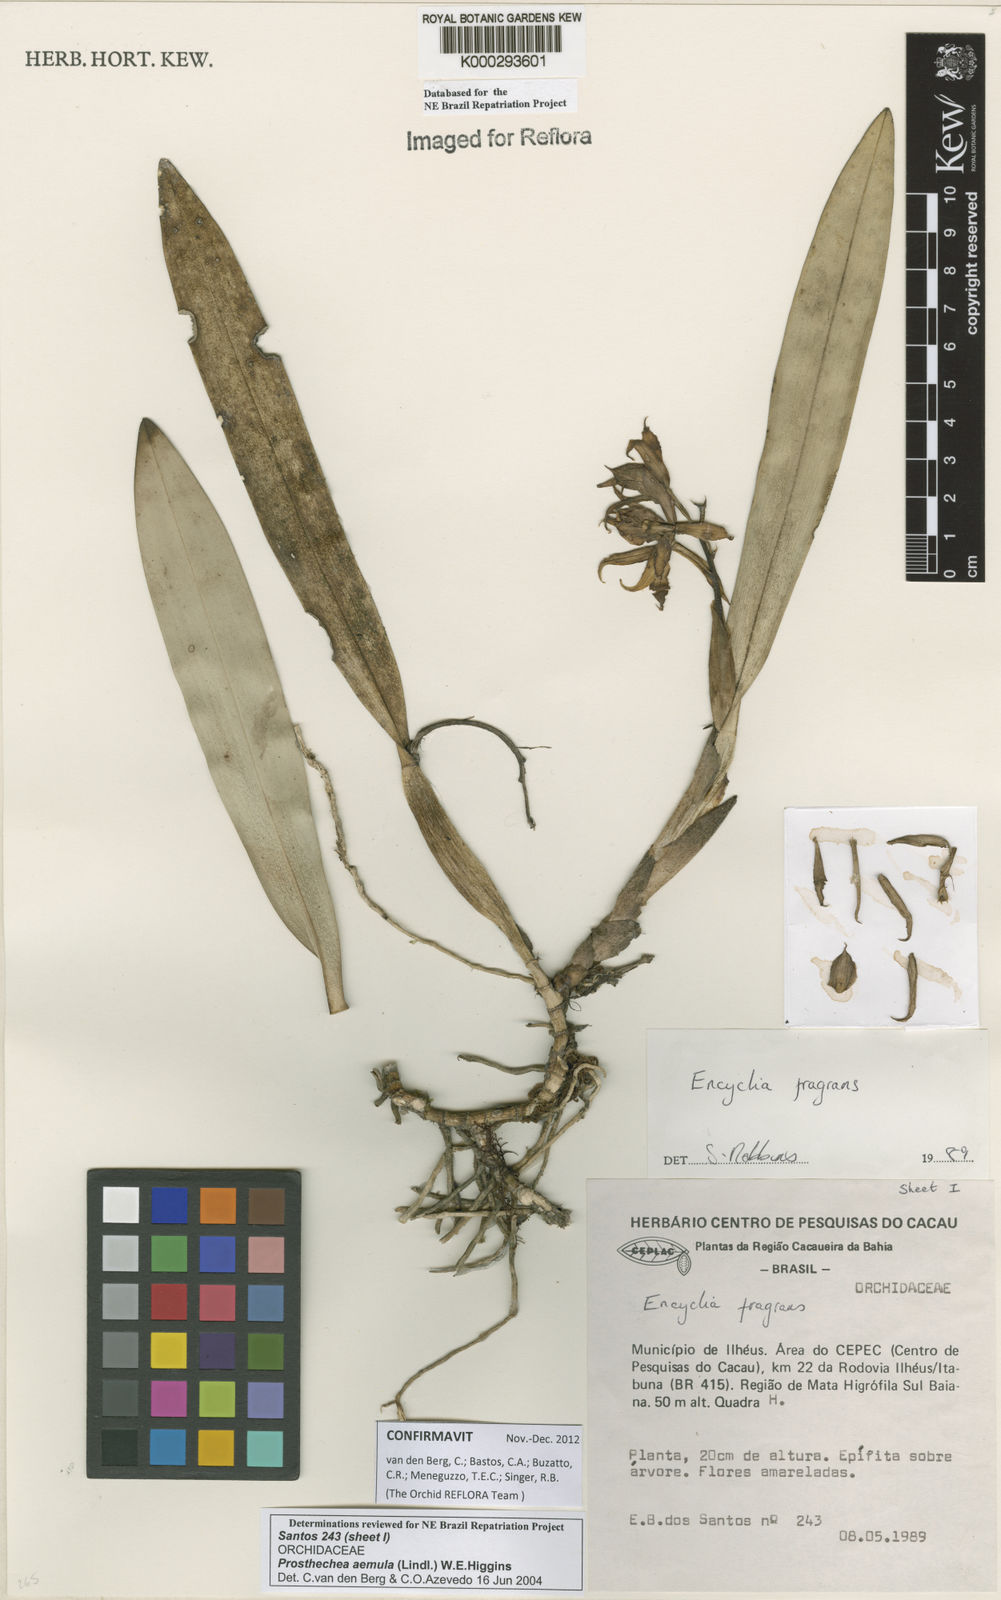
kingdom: Plantae
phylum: Tracheophyta
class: Liliopsida
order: Asparagales
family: Orchidaceae
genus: Prosthechea
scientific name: Prosthechea aemula
